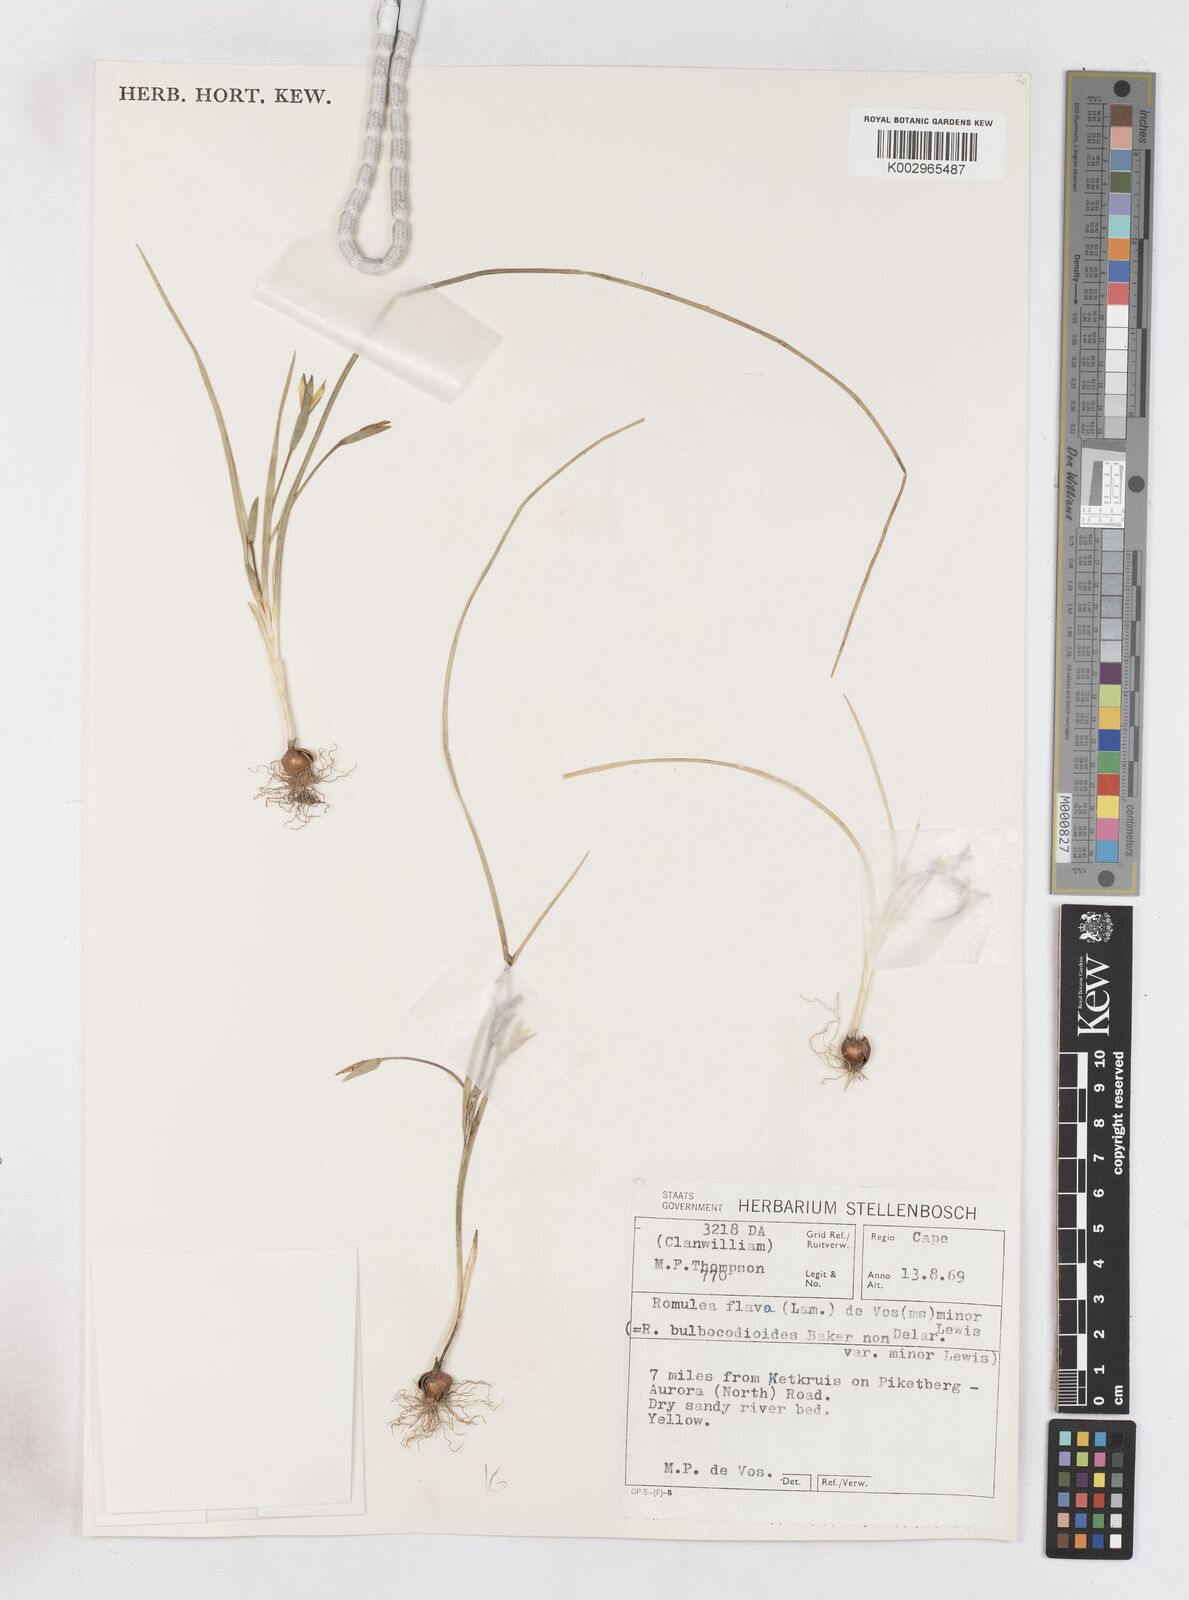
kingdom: Plantae
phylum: Tracheophyta
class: Liliopsida
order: Asparagales
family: Iridaceae
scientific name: Iridaceae
